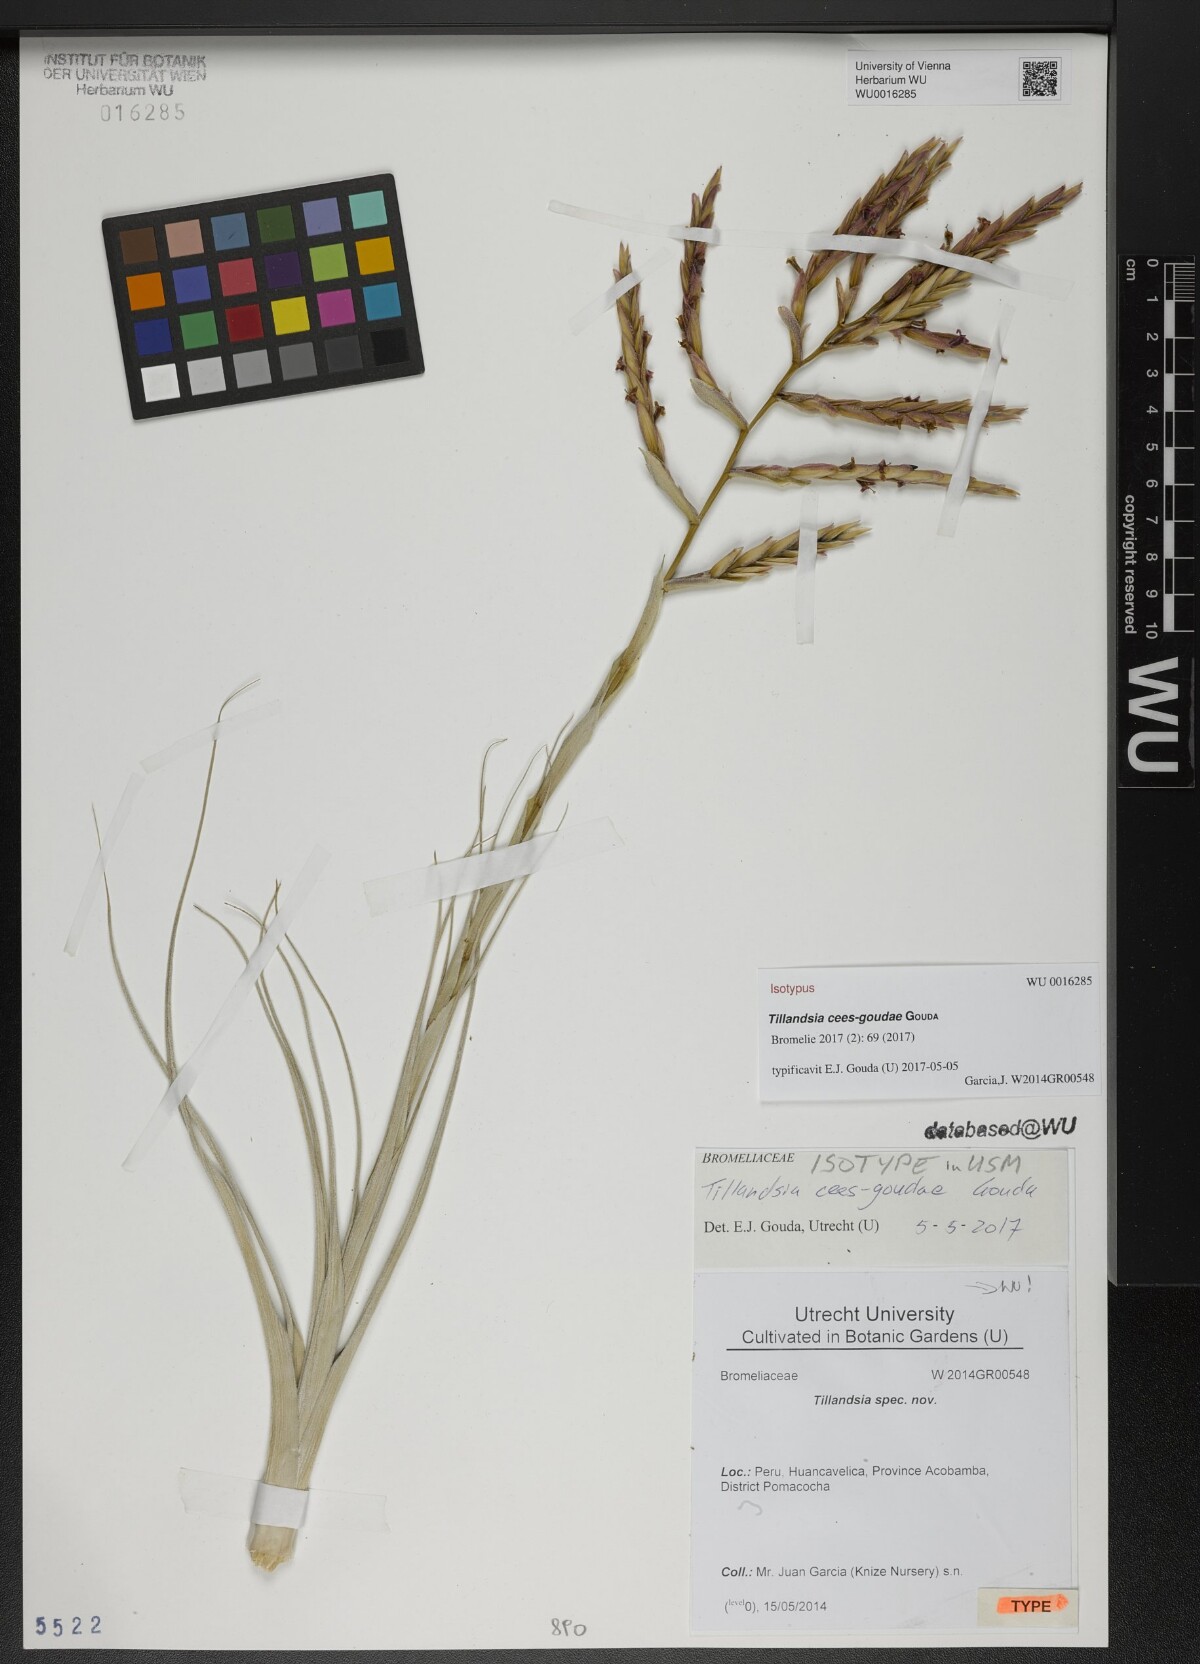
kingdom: Plantae
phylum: Tracheophyta
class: Liliopsida
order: Poales
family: Bromeliaceae
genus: Tillandsia
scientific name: Tillandsia cees-goudae
